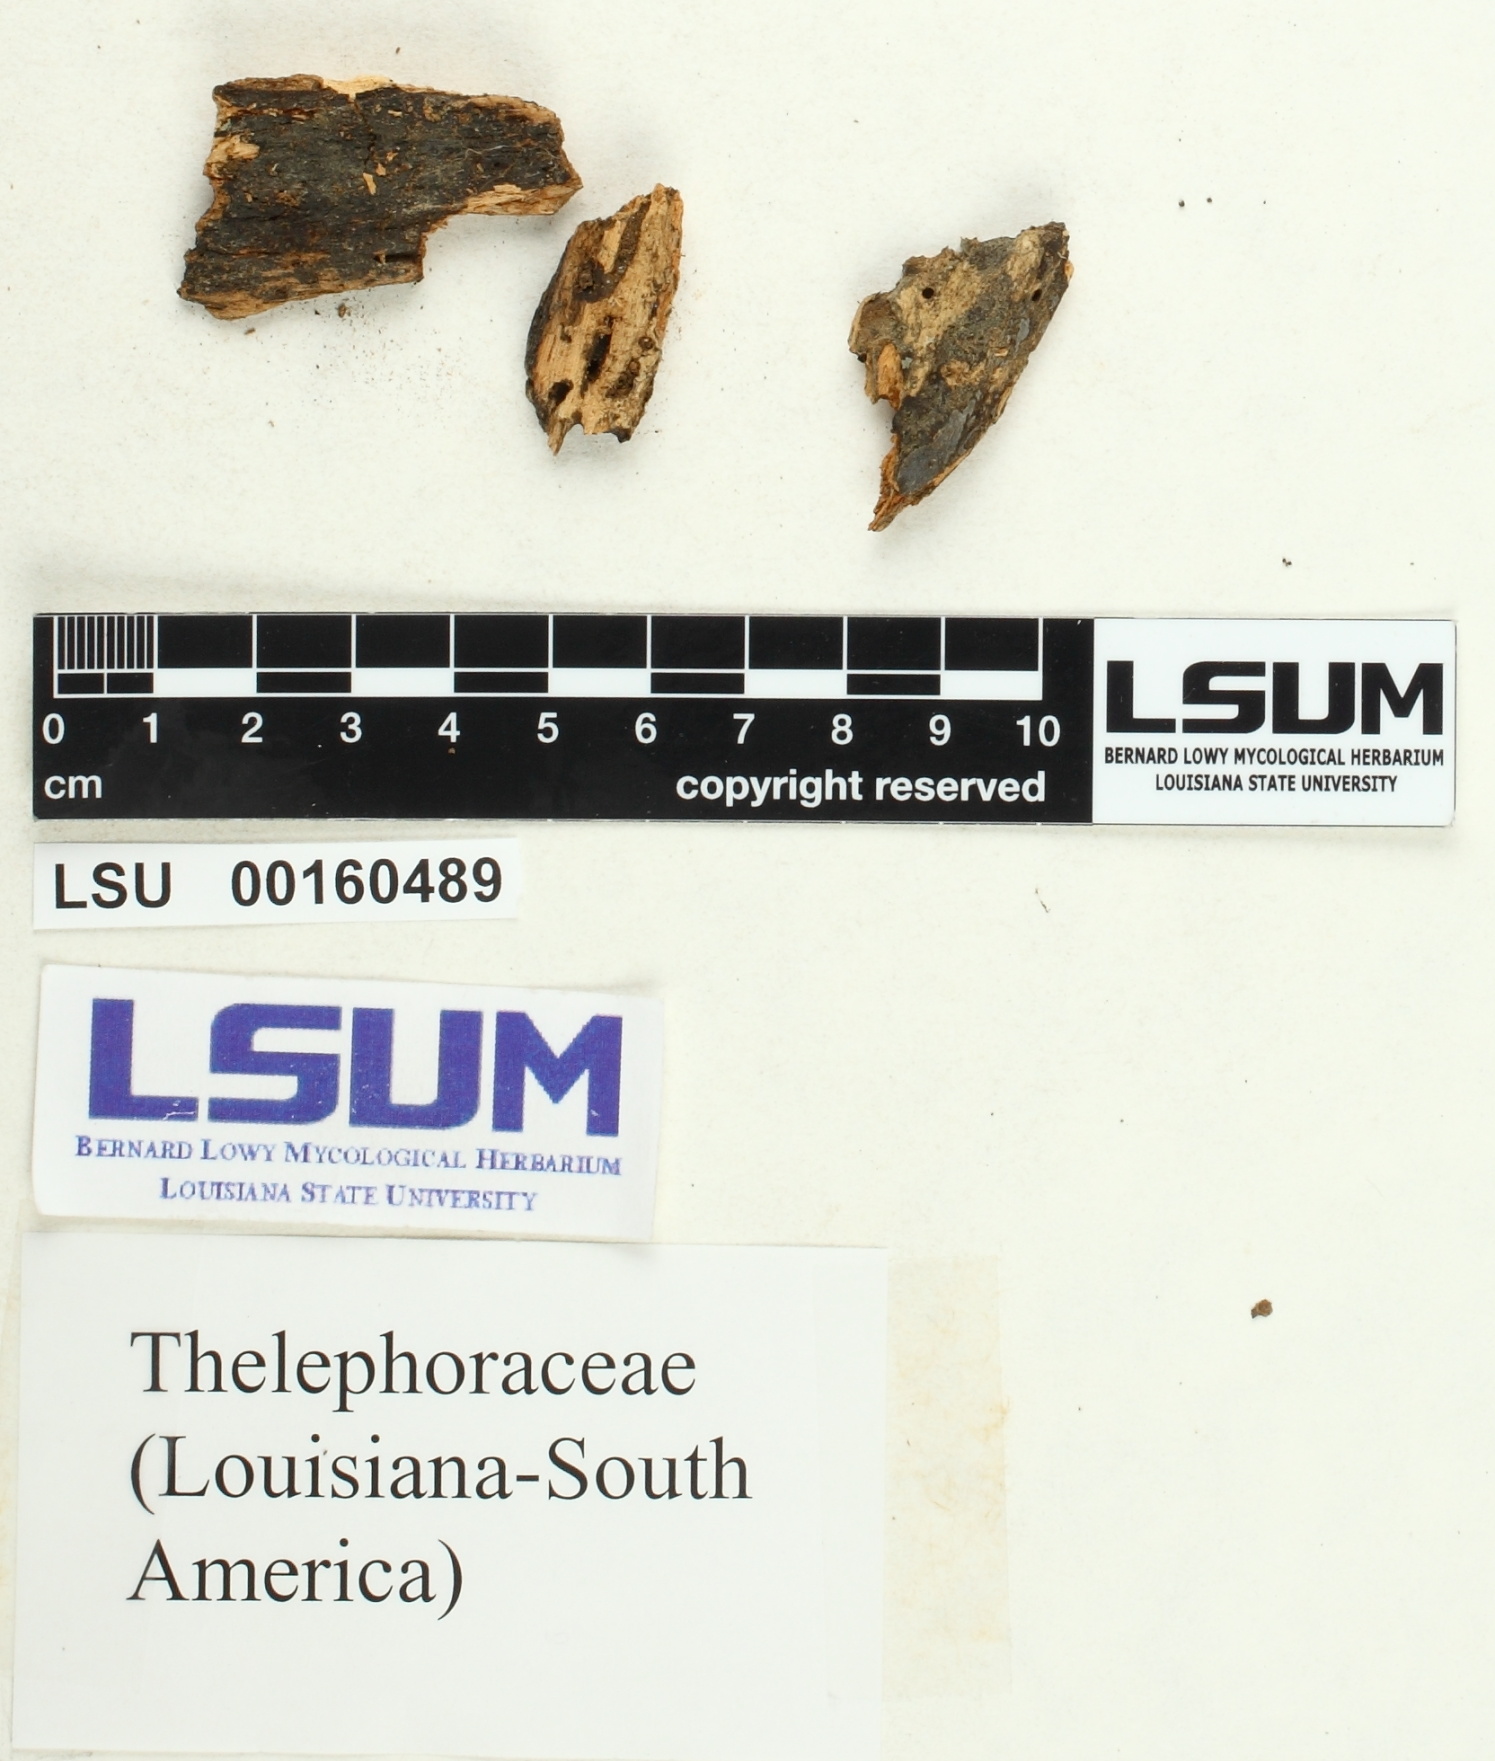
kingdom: Fungi
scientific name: Fungi
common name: Fungi
